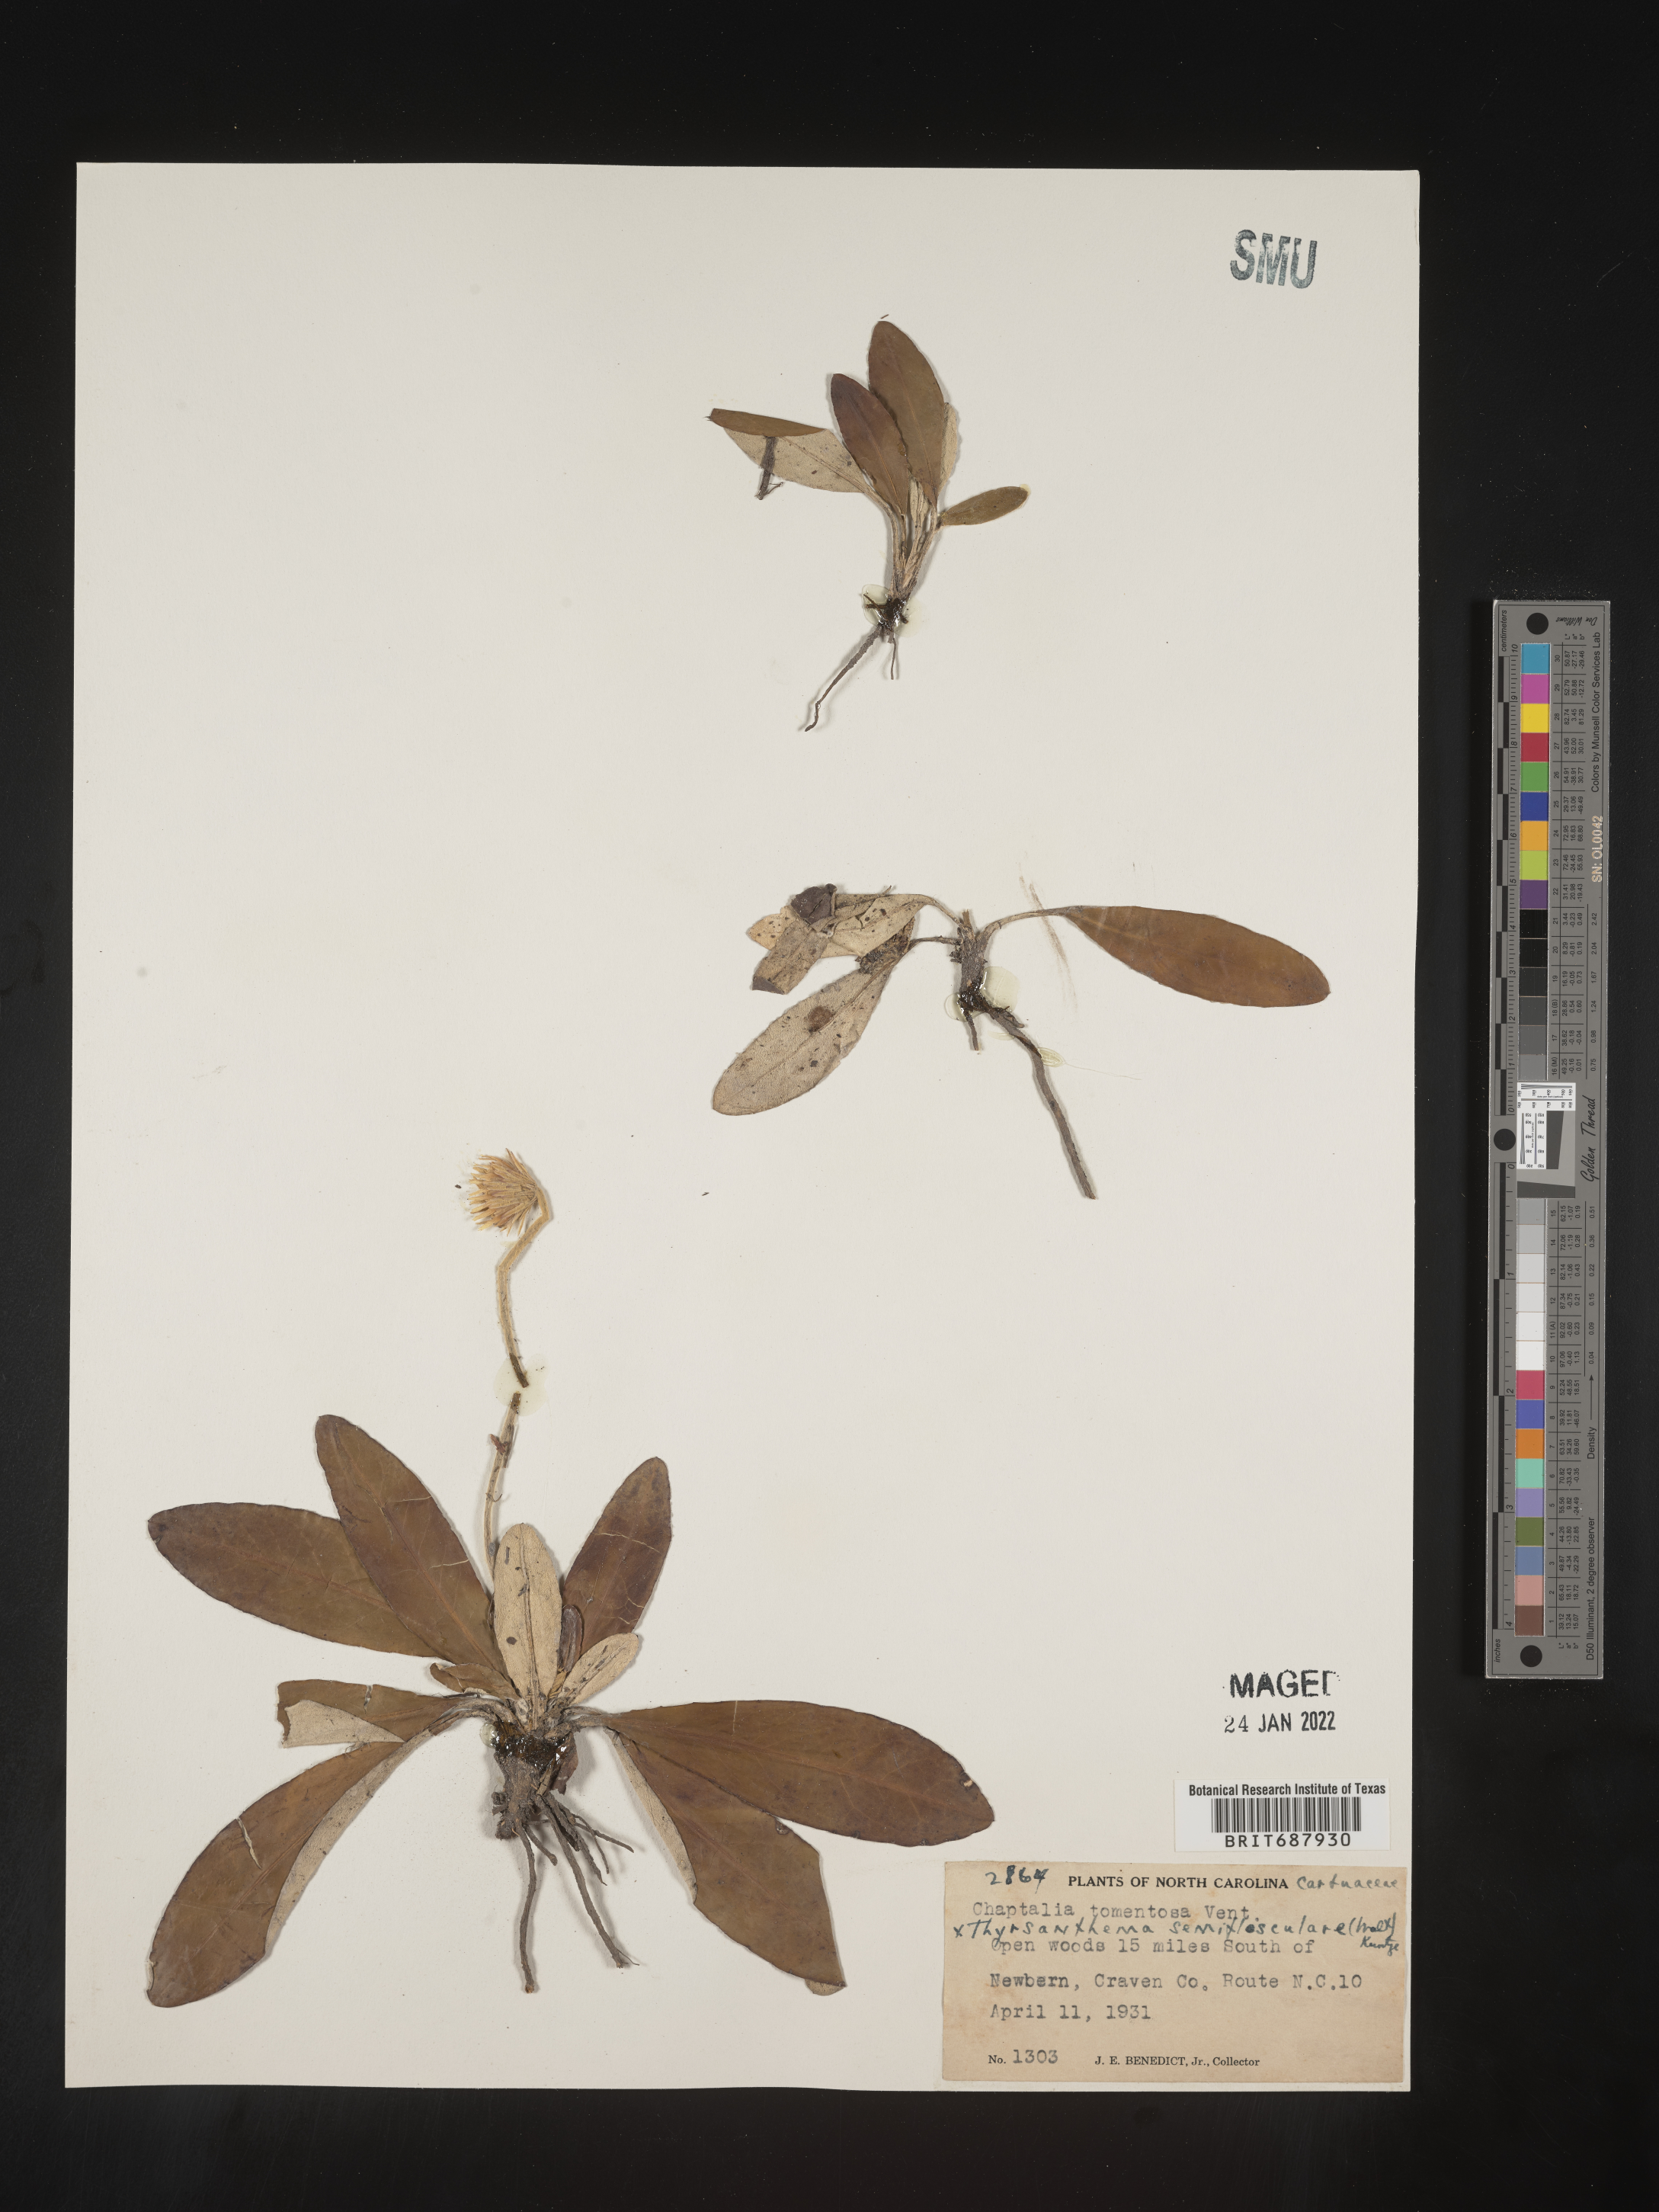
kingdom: Plantae
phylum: Tracheophyta
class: Magnoliopsida
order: Asterales
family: Asteraceae
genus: Chaptalia
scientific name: Chaptalia tomentosa
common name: Woolly sunbonnet
